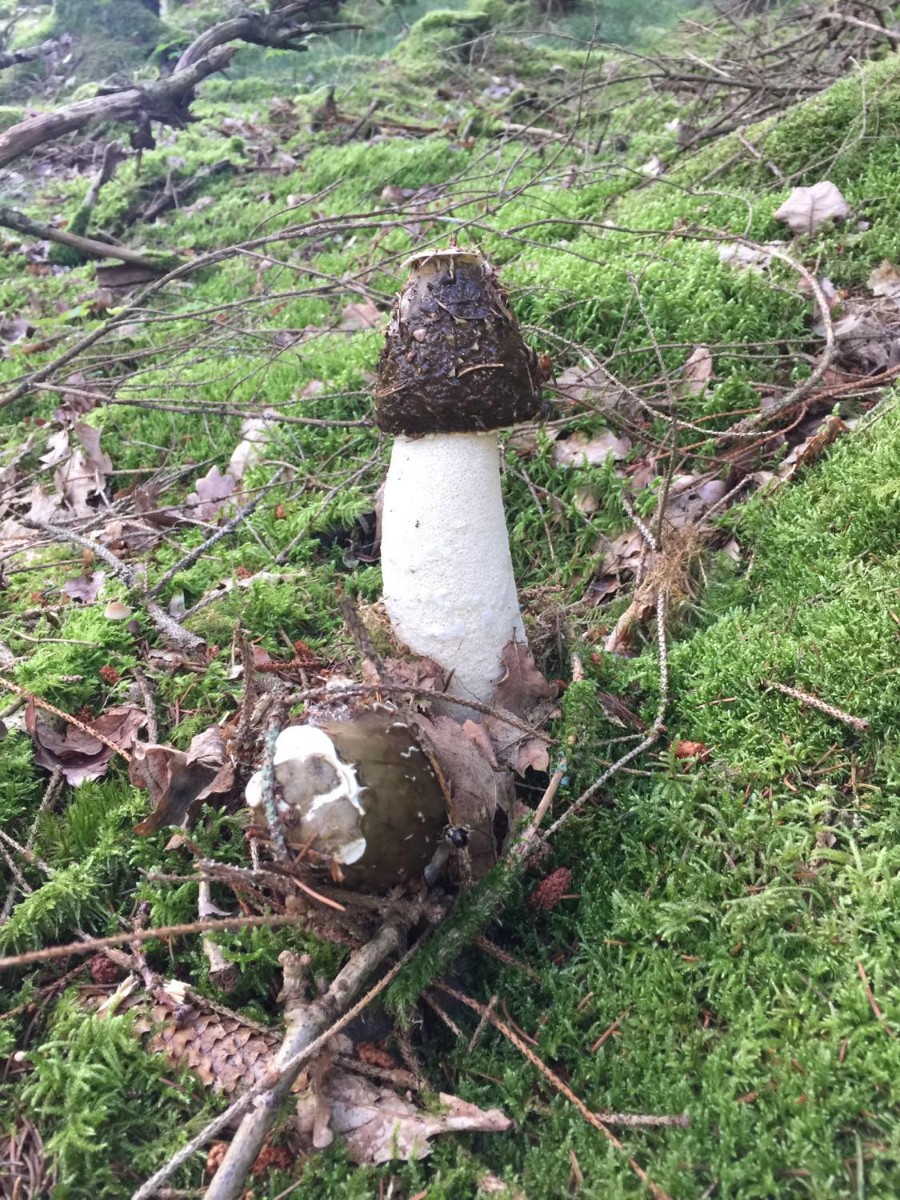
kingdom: Fungi
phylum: Basidiomycota
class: Agaricomycetes
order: Phallales
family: Phallaceae
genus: Phallus
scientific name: Phallus impudicus
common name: almindelig stinksvamp
